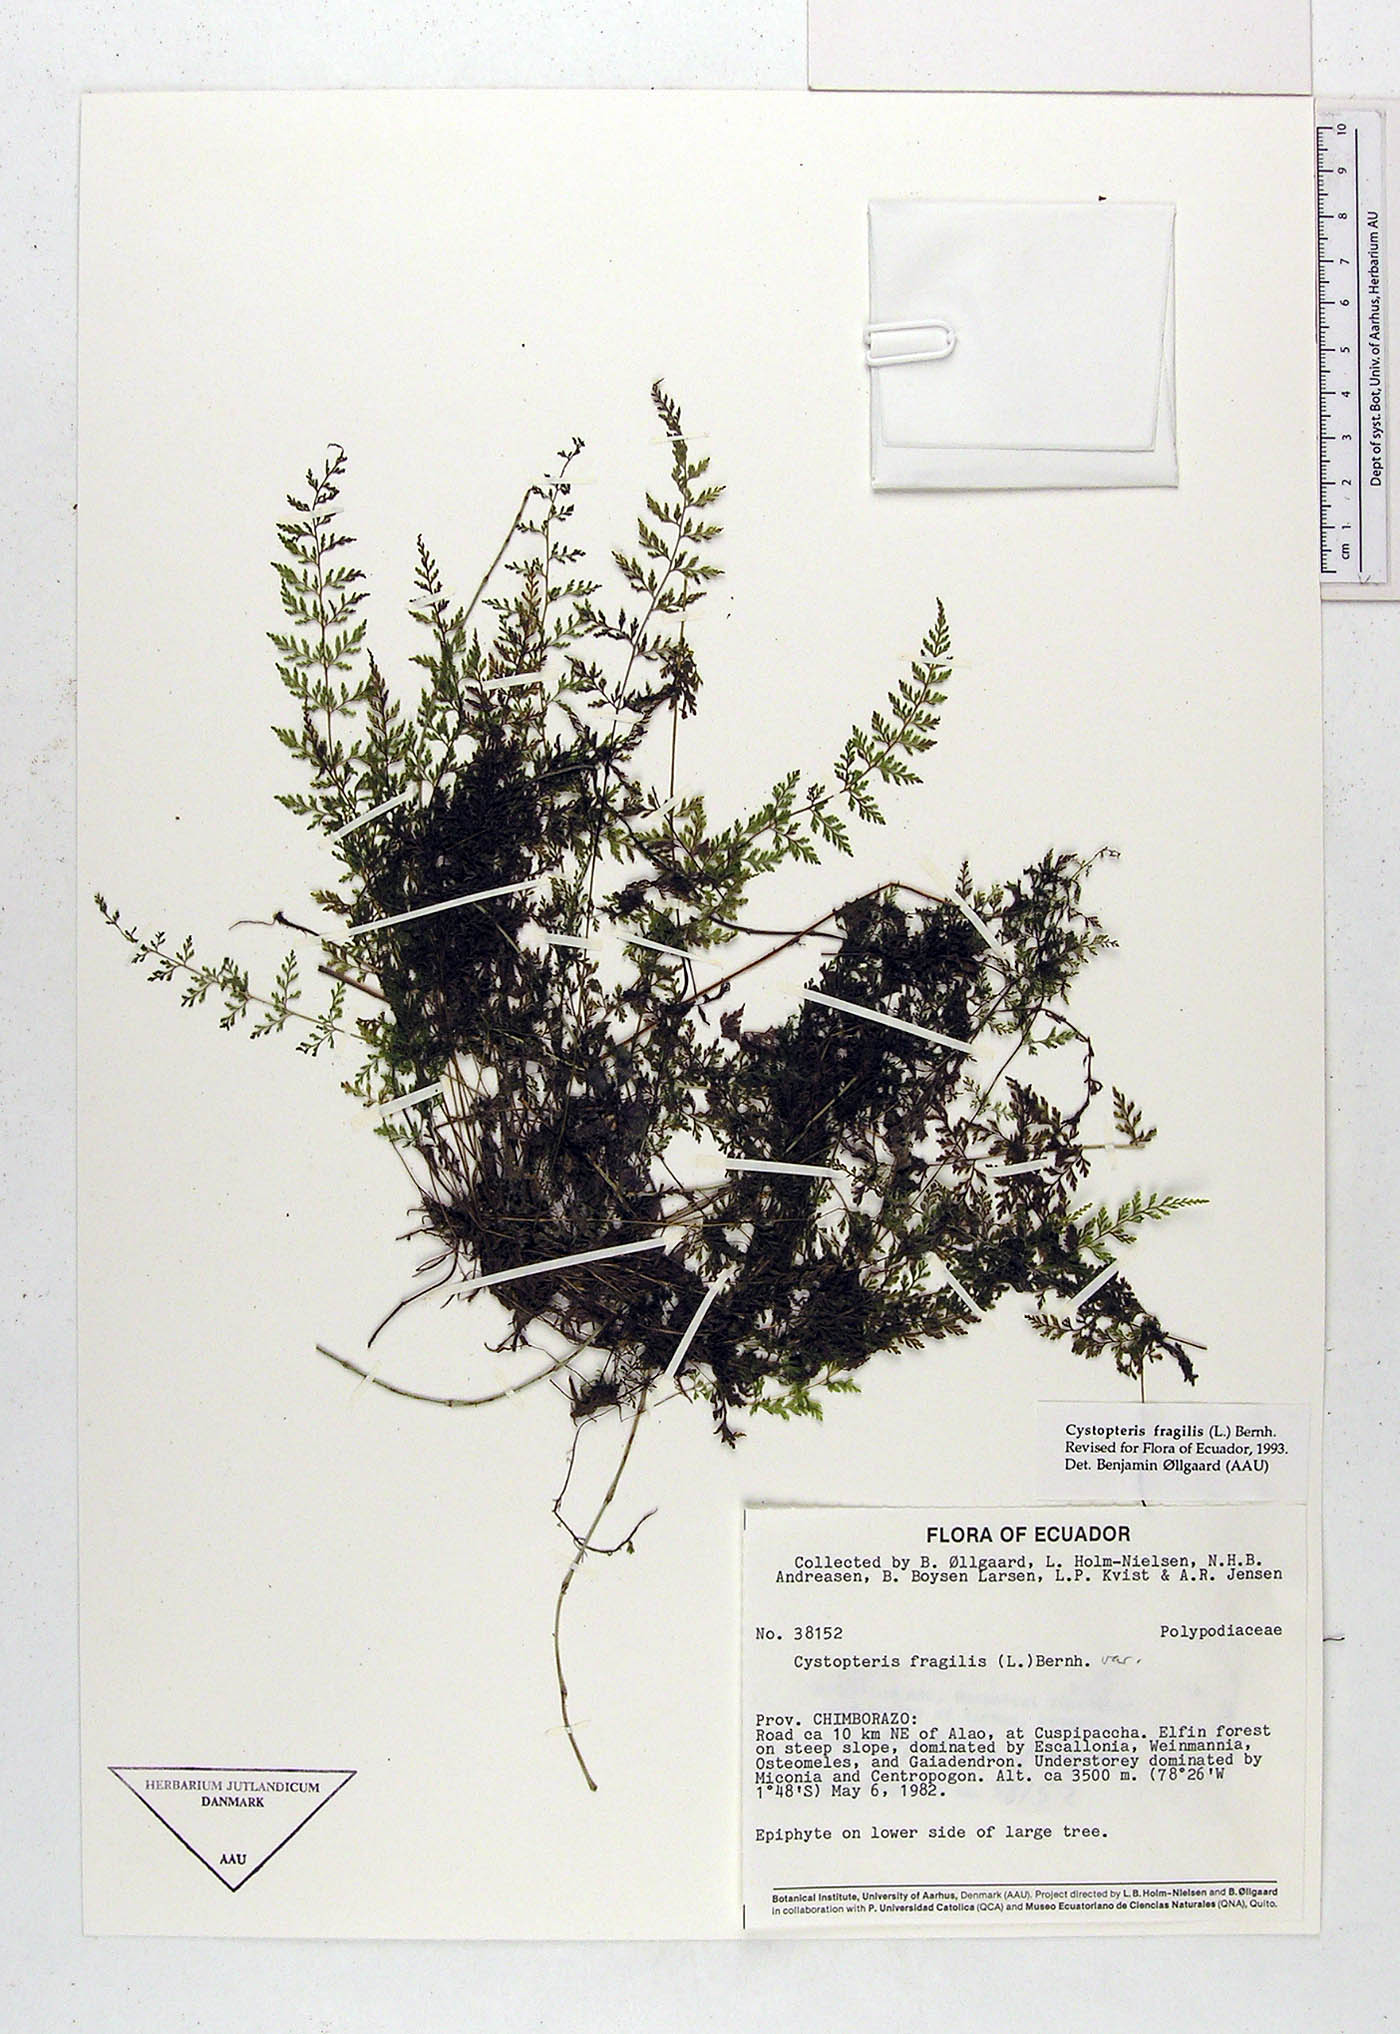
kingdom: Plantae
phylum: Tracheophyta
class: Polypodiopsida
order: Polypodiales
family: Cystopteridaceae
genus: Cystopteris
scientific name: Cystopteris fragilis
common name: Brittle bladder fern
